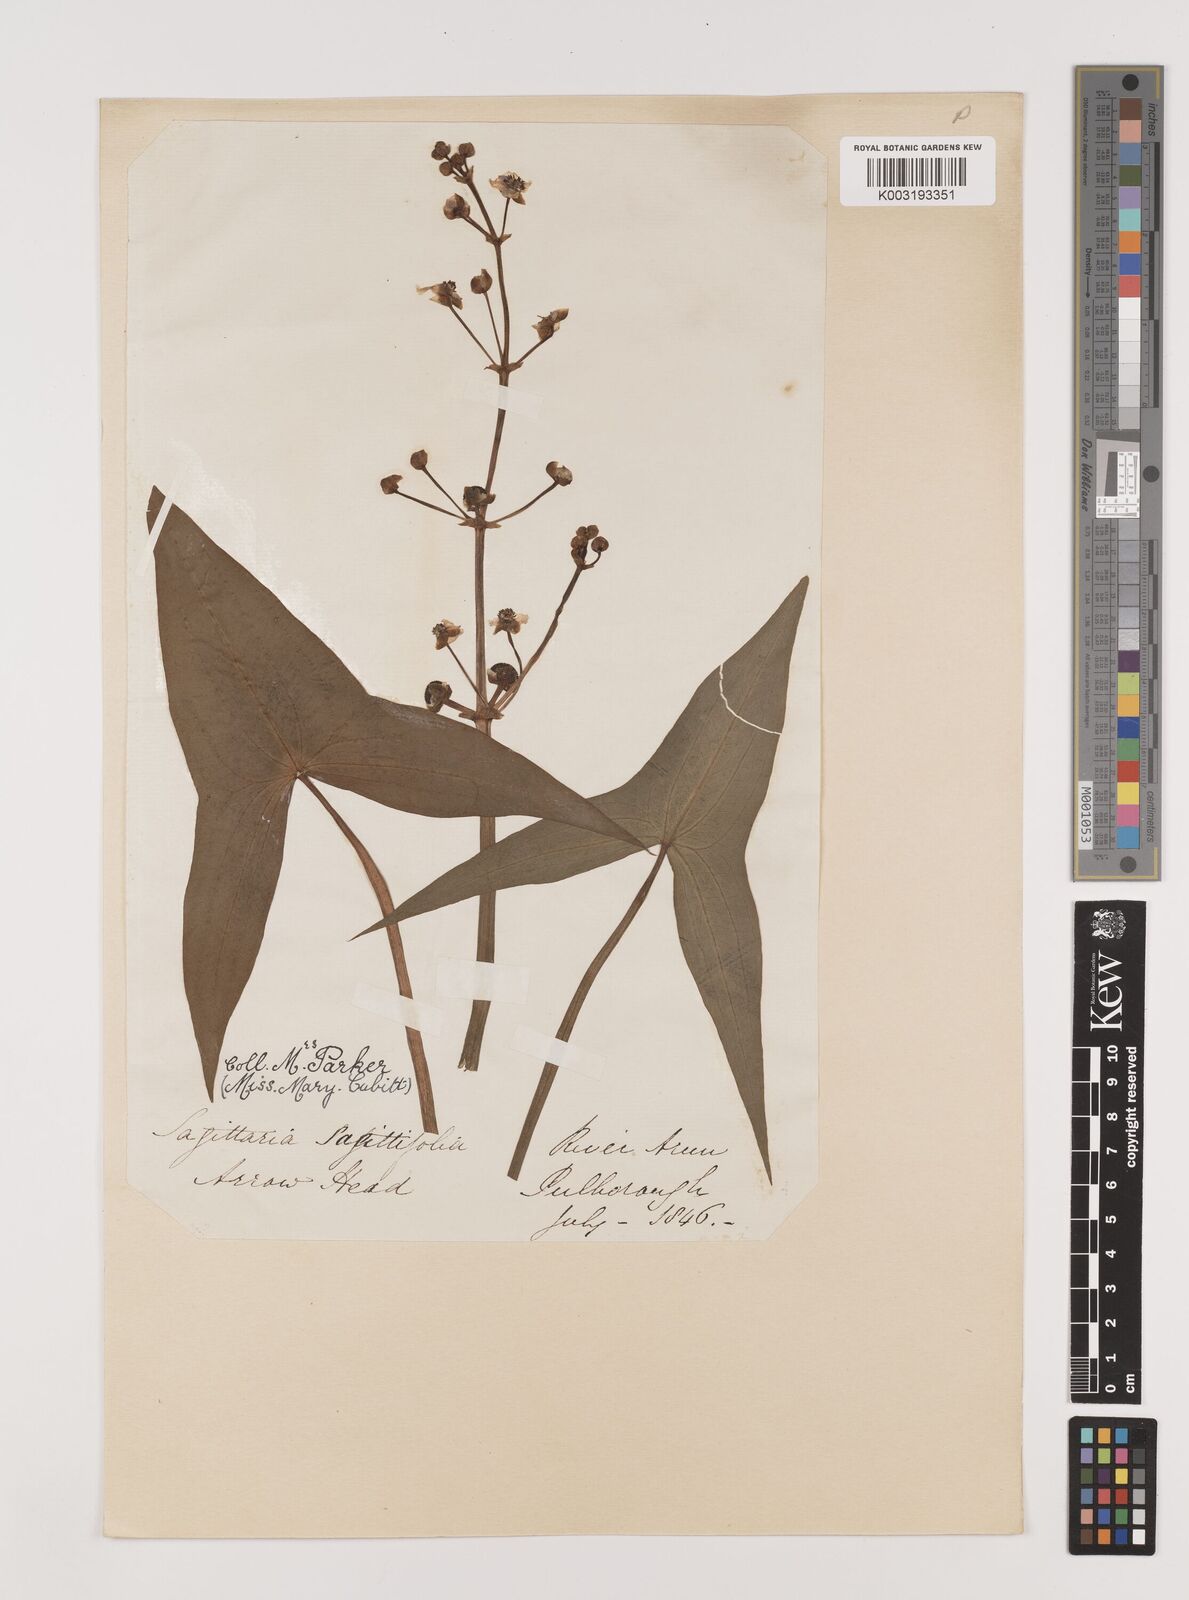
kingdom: Plantae
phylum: Tracheophyta
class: Liliopsida
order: Alismatales
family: Alismataceae
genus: Sagittaria
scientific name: Sagittaria sagittifolia
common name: Arrowhead
